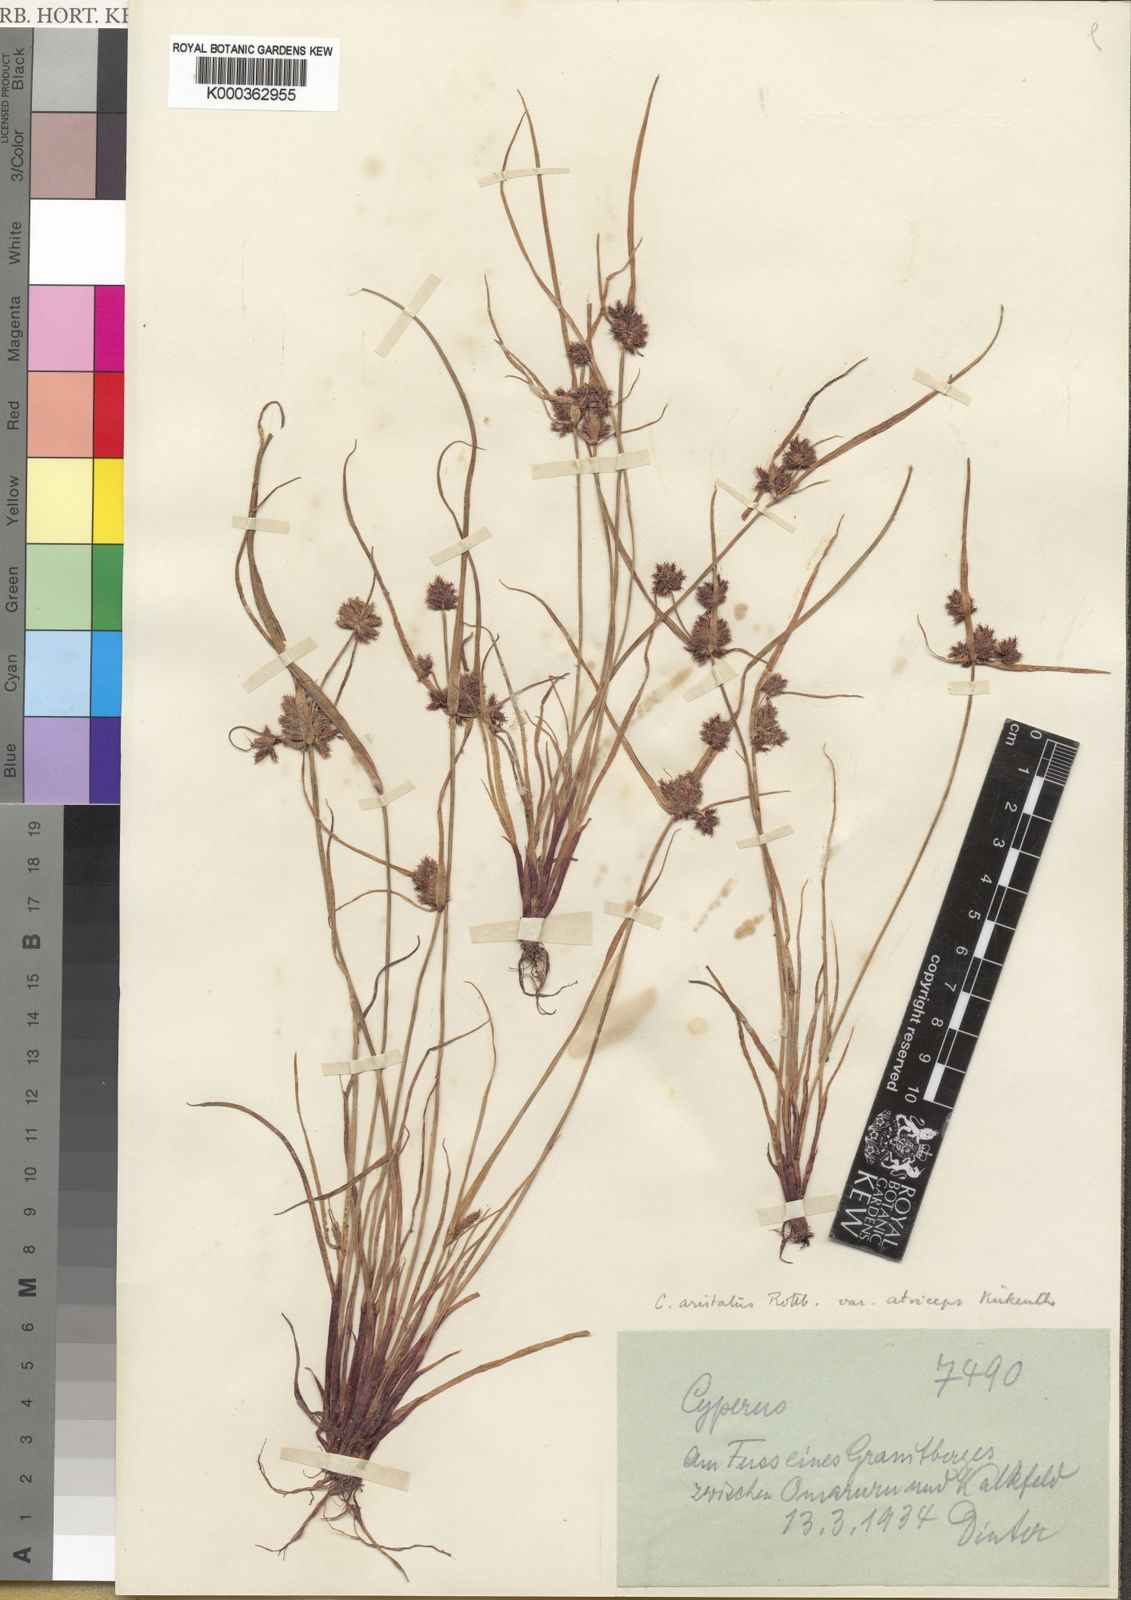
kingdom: Plantae
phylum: Tracheophyta
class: Liliopsida
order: Poales
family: Cyperaceae
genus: Cyperus
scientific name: Cyperus
